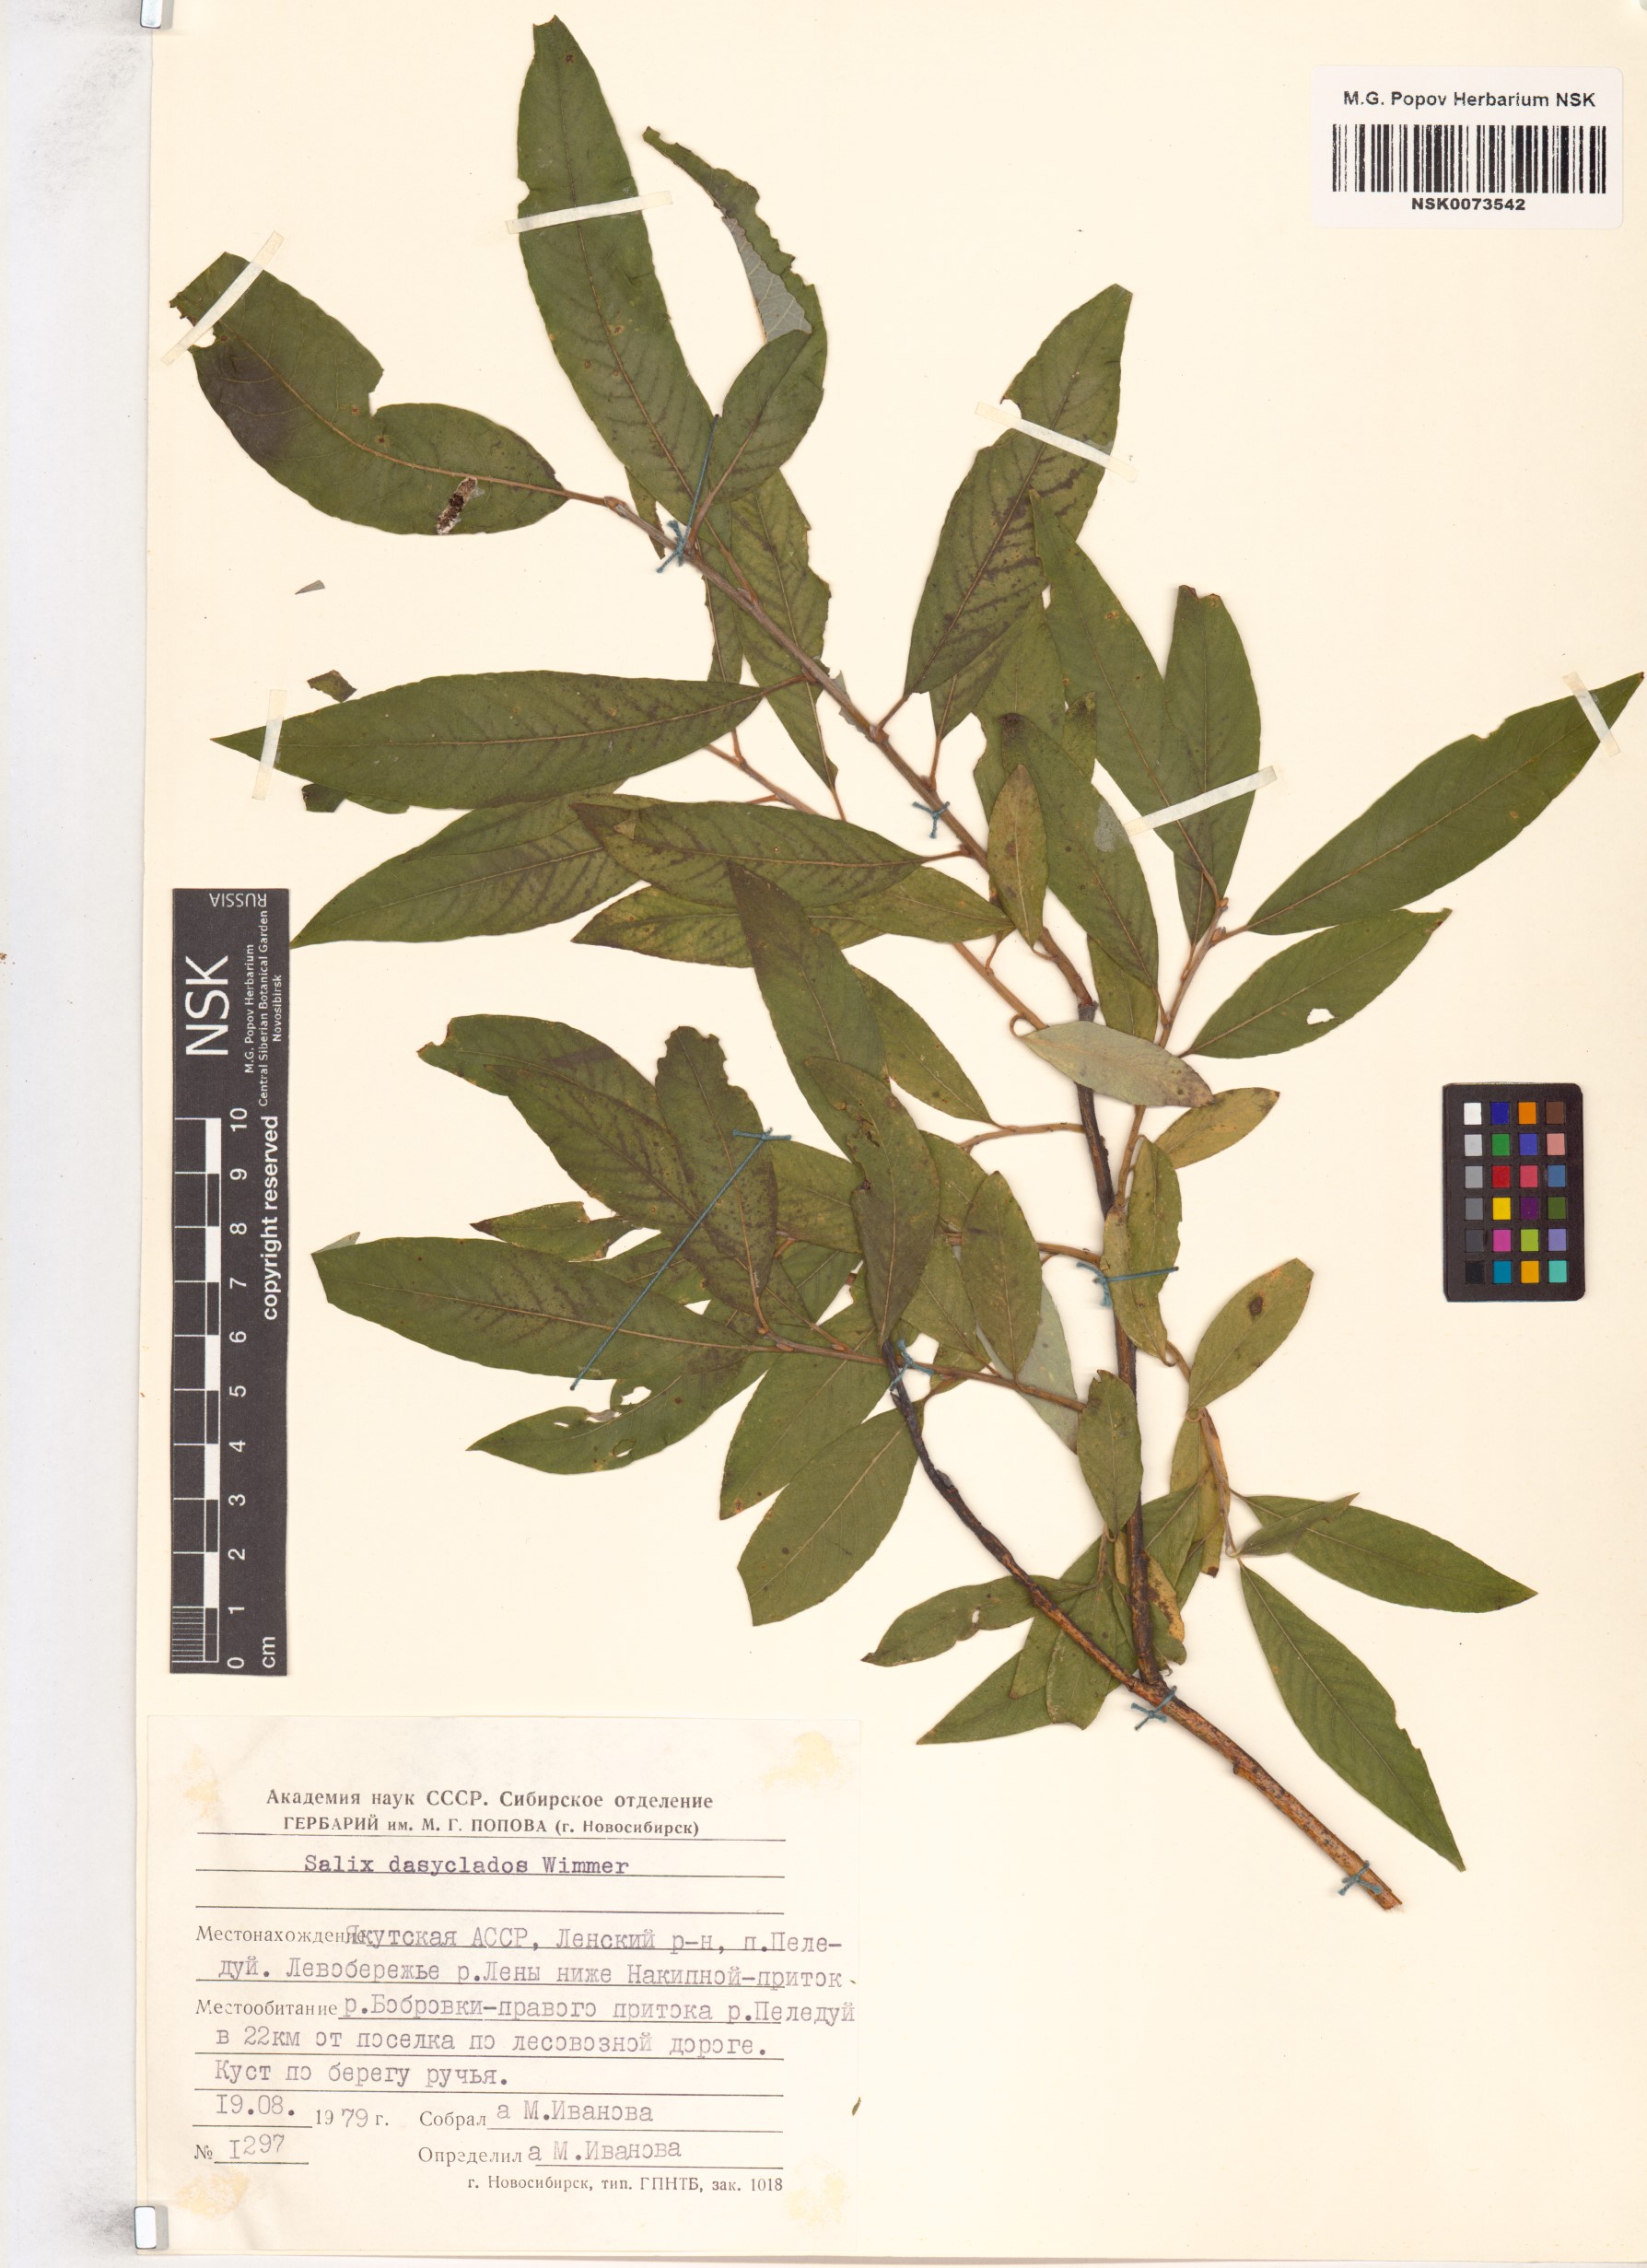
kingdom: Plantae
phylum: Tracheophyta
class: Magnoliopsida
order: Malpighiales
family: Salicaceae
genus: Salix
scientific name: Salix gmelinii
